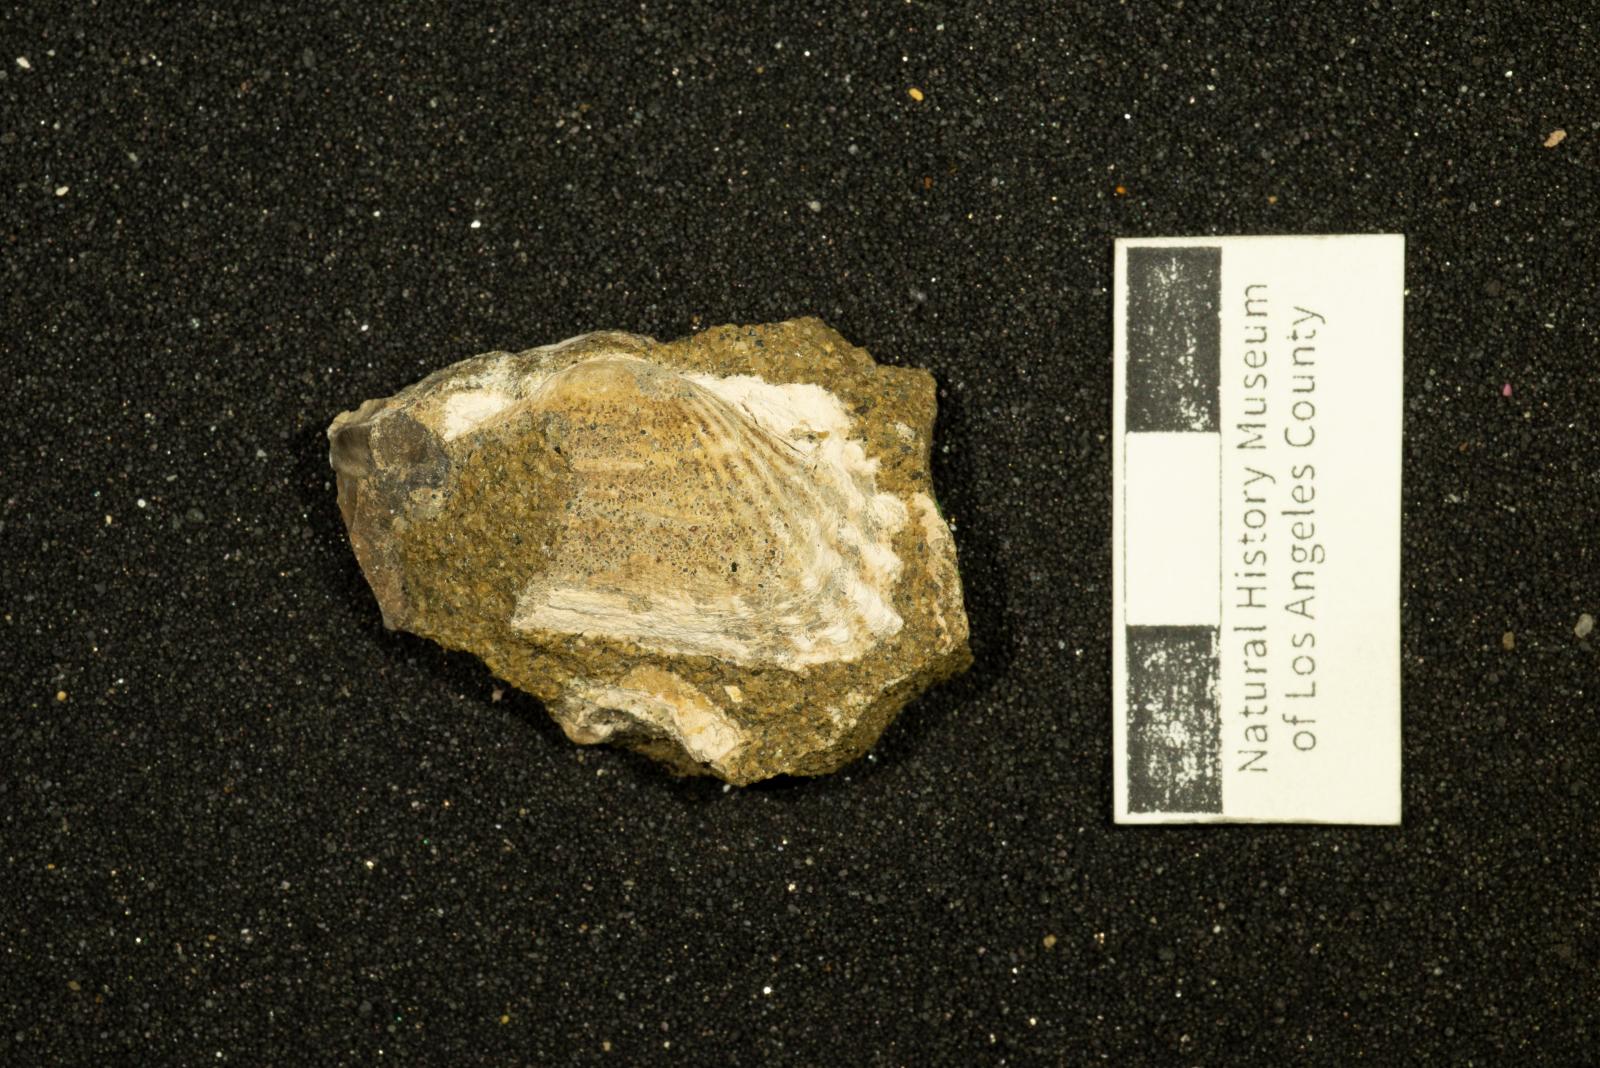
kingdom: Animalia
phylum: Mollusca
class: Bivalvia
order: Arcida
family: Parallelodontidae
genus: Nemodon
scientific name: Nemodon
